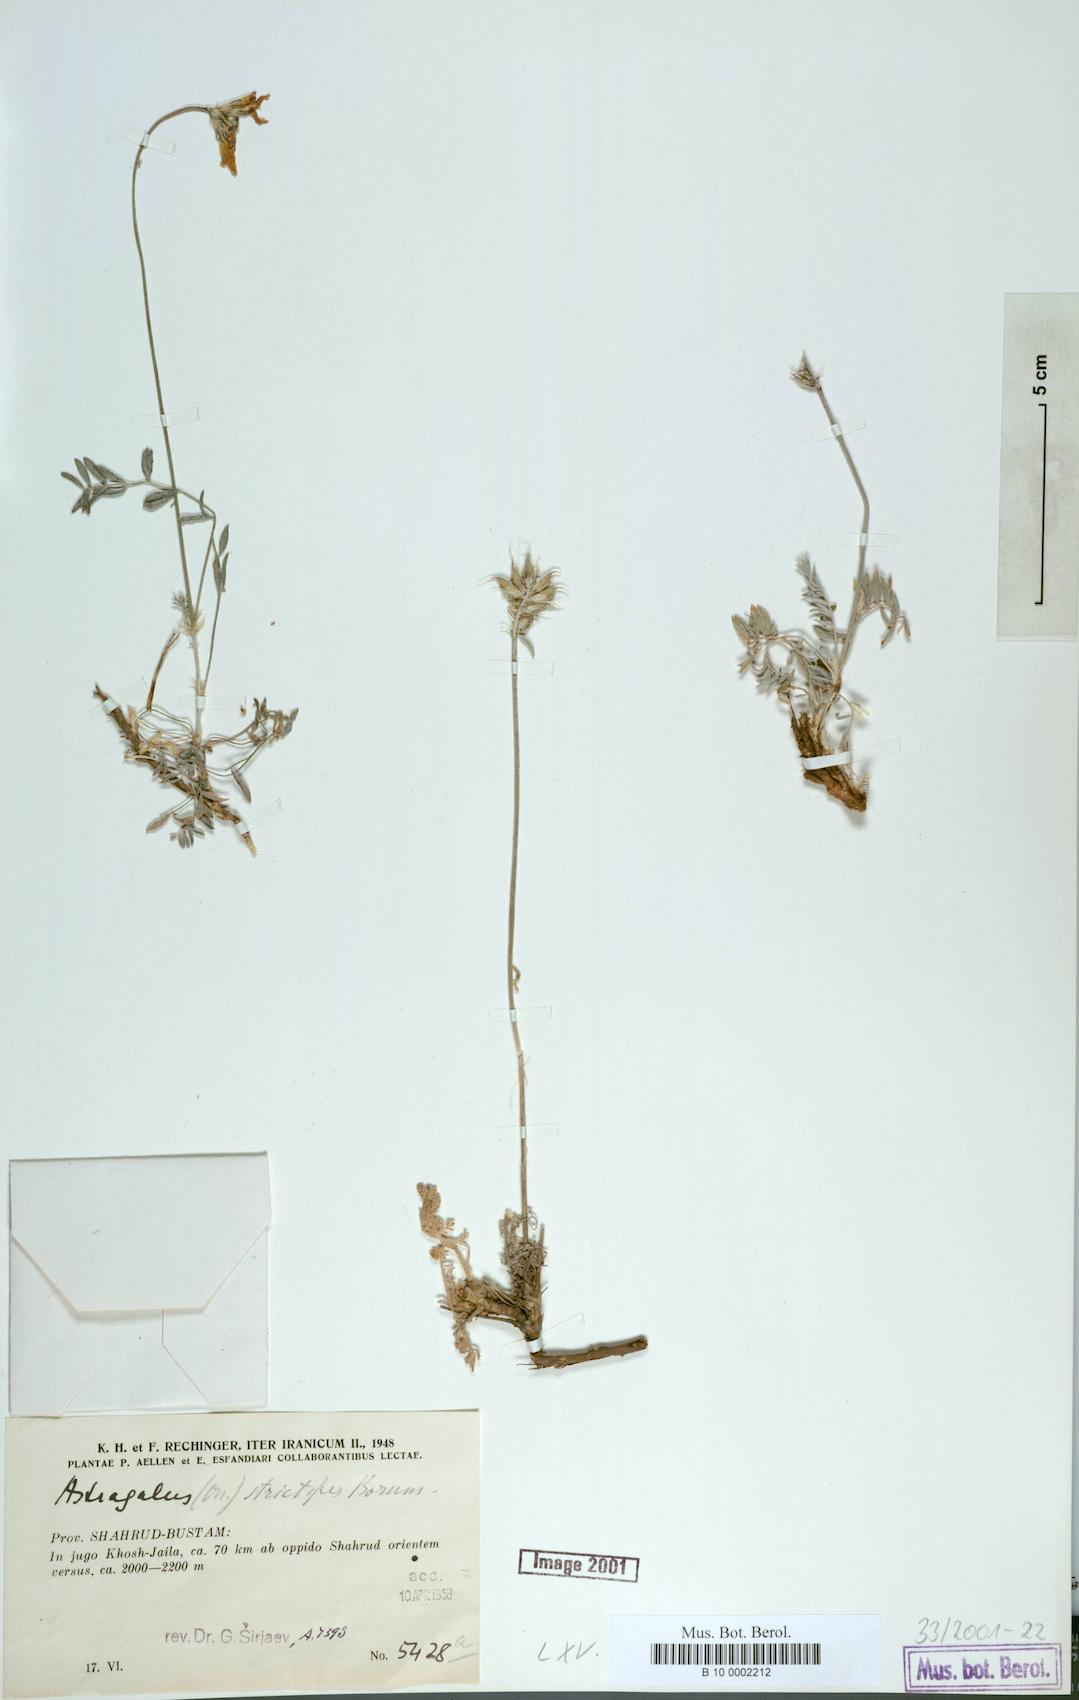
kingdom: Plantae
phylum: Tracheophyta
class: Magnoliopsida
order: Fabales
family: Fabaceae
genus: Astragalus
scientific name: Astragalus lilacinus
